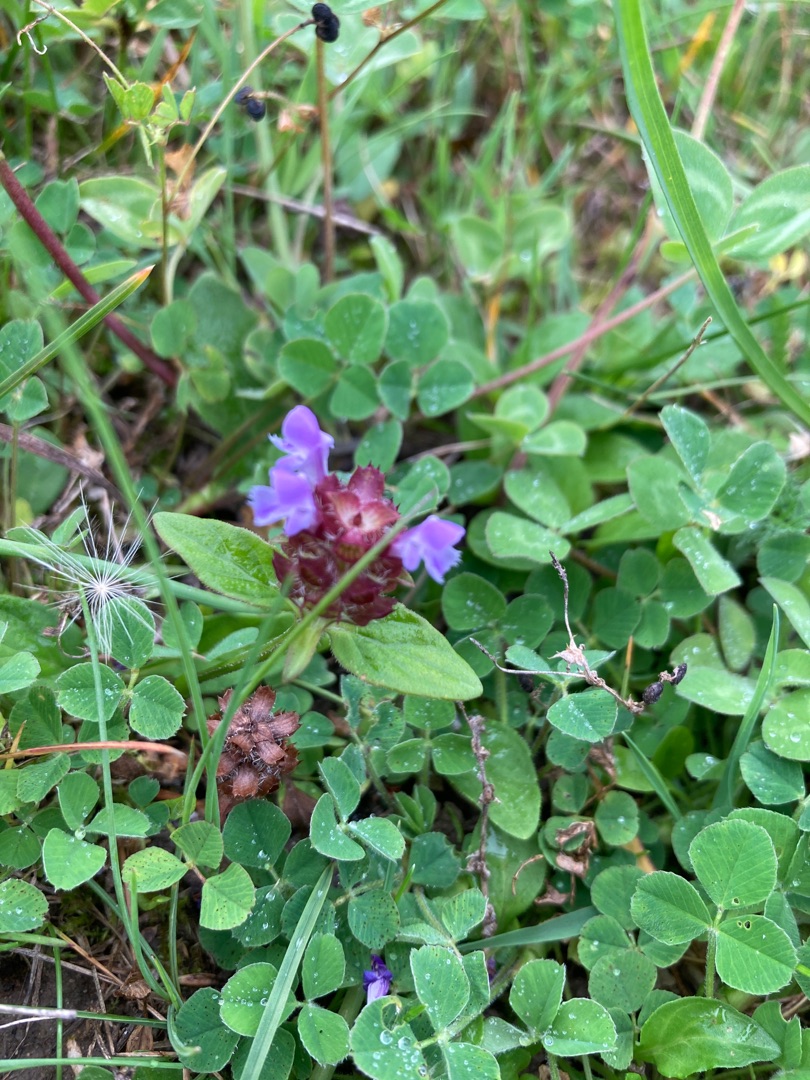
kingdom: Plantae
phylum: Tracheophyta
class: Magnoliopsida
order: Lamiales
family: Lamiaceae
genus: Prunella
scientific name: Prunella vulgaris
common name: Almindelig brunelle
